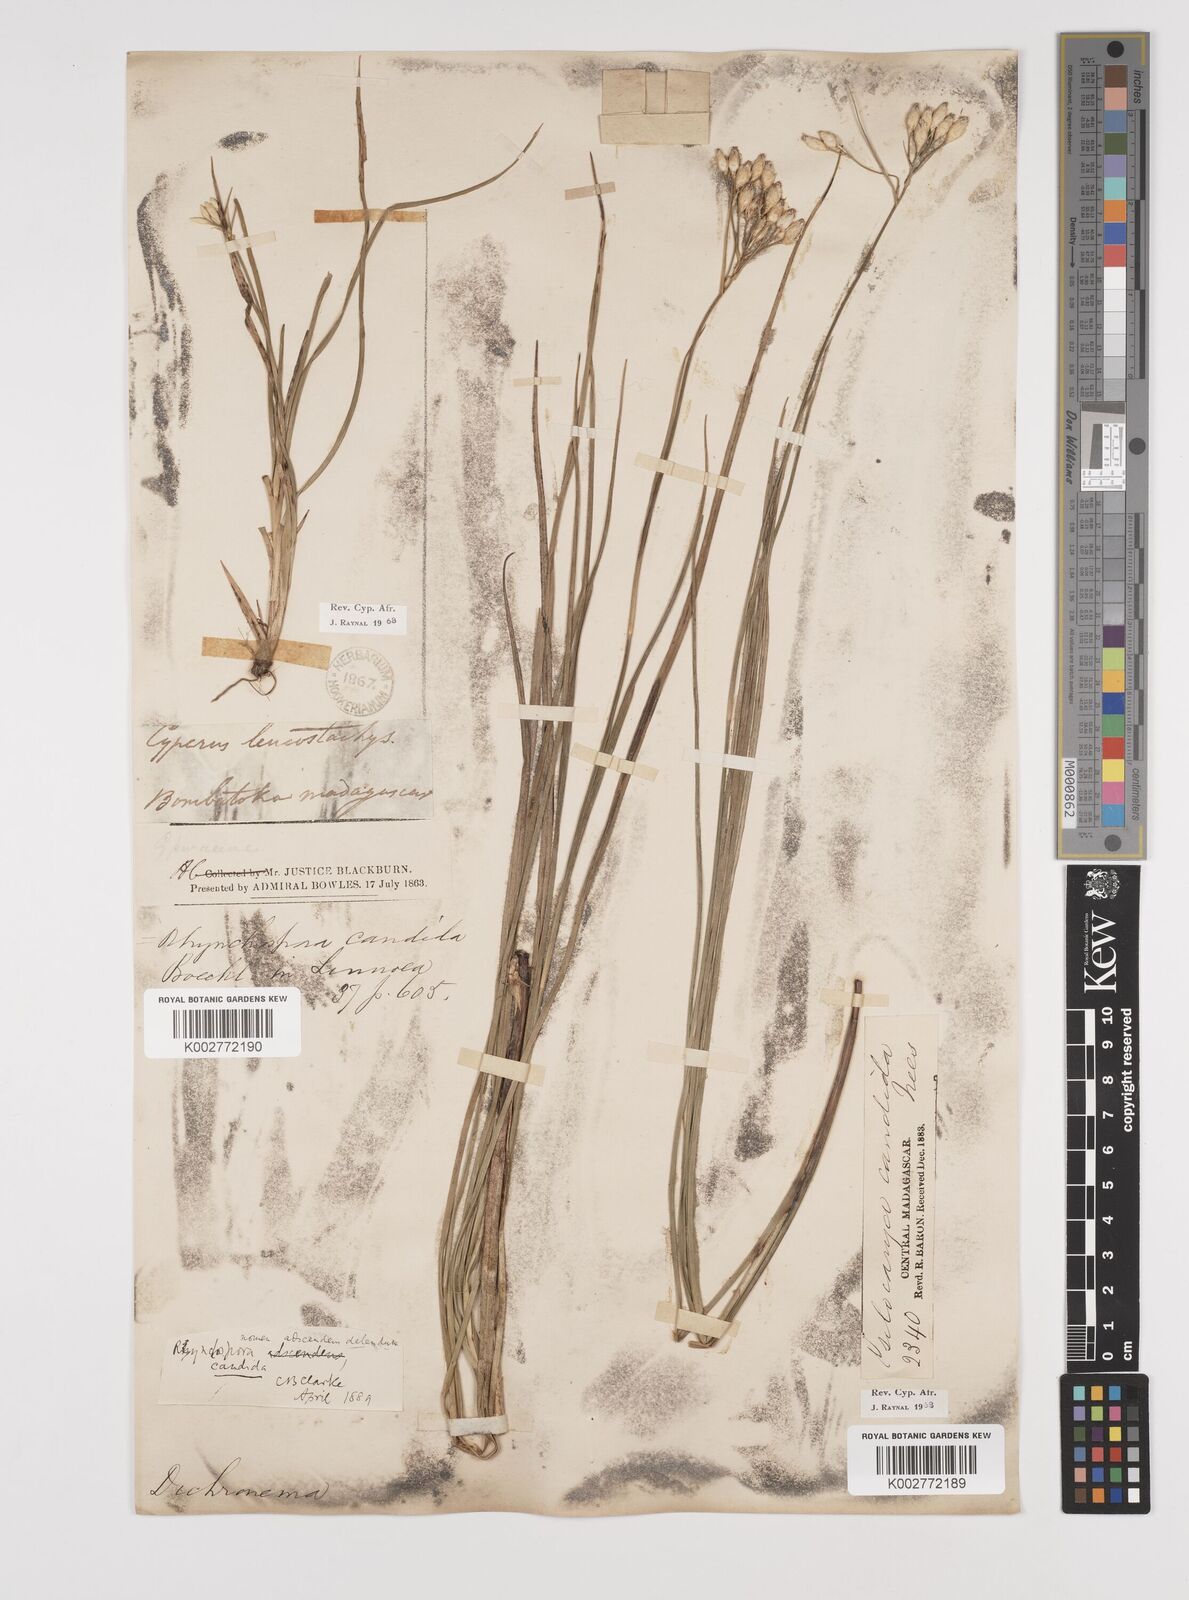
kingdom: Plantae
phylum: Tracheophyta
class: Liliopsida
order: Poales
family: Cyperaceae
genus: Rhynchospora
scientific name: Rhynchospora candida
